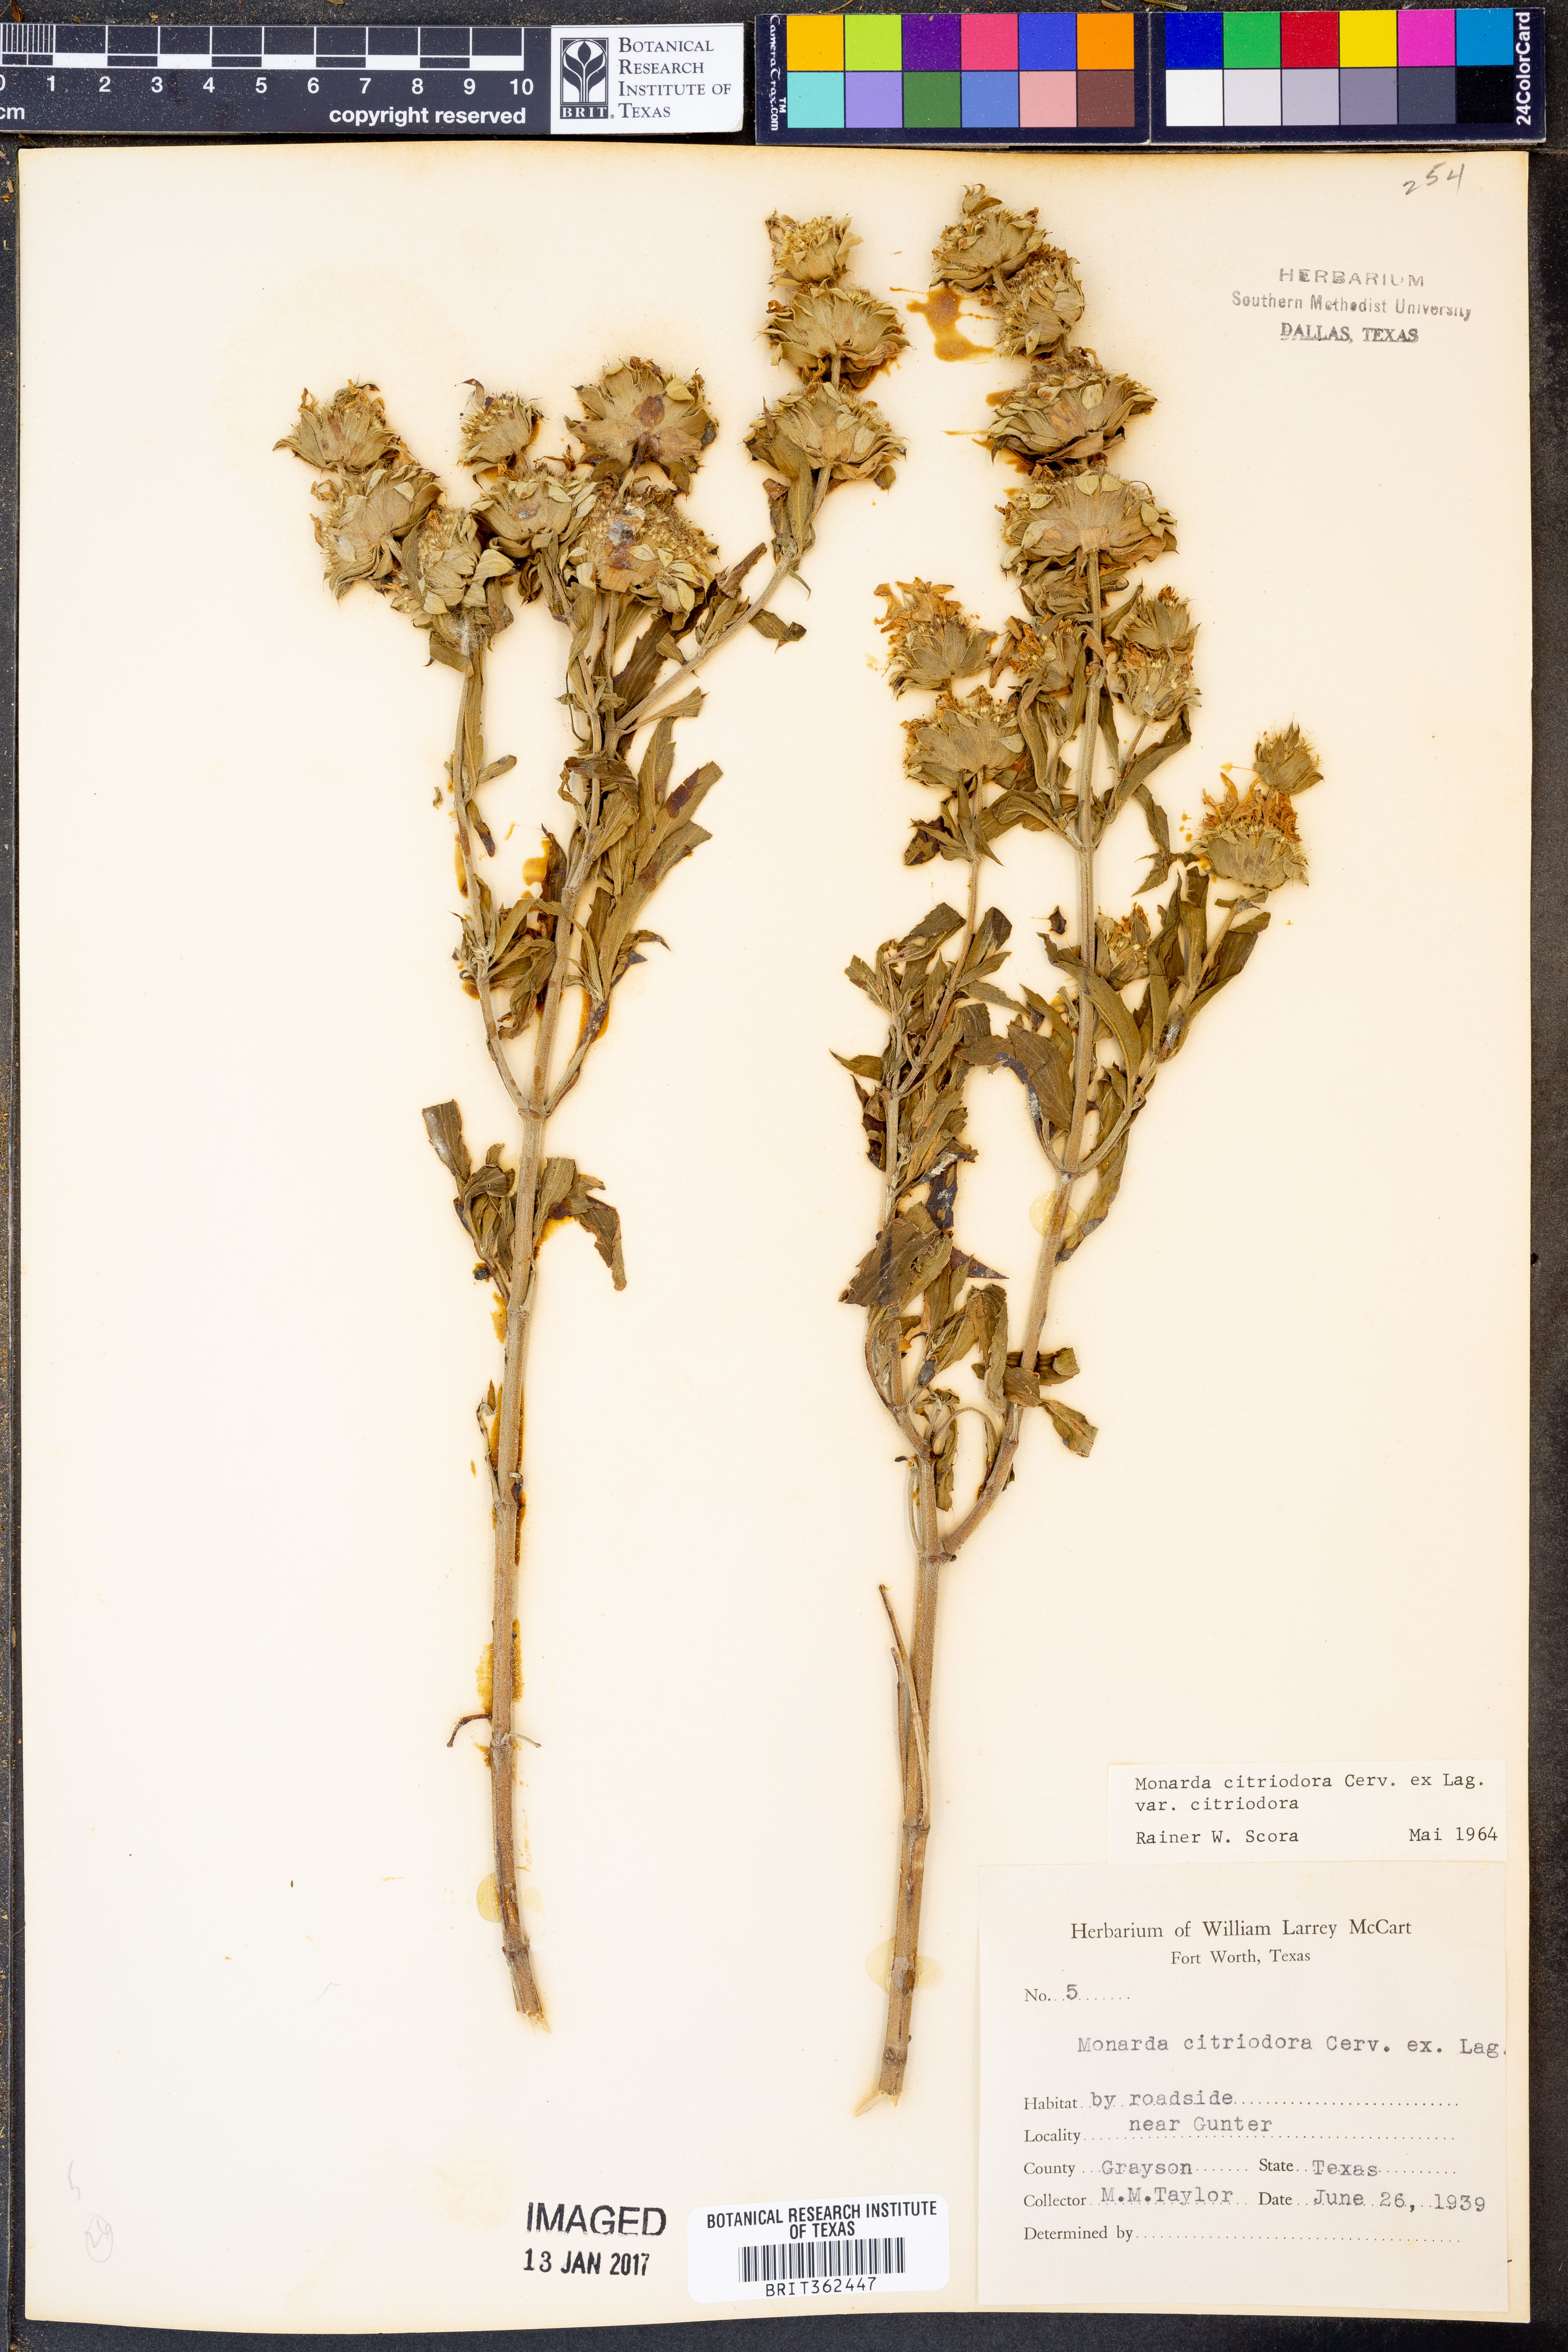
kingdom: Plantae
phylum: Tracheophyta
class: Magnoliopsida
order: Lamiales
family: Lamiaceae
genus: Monarda
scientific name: Monarda citriodora
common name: Lemon beebalm
